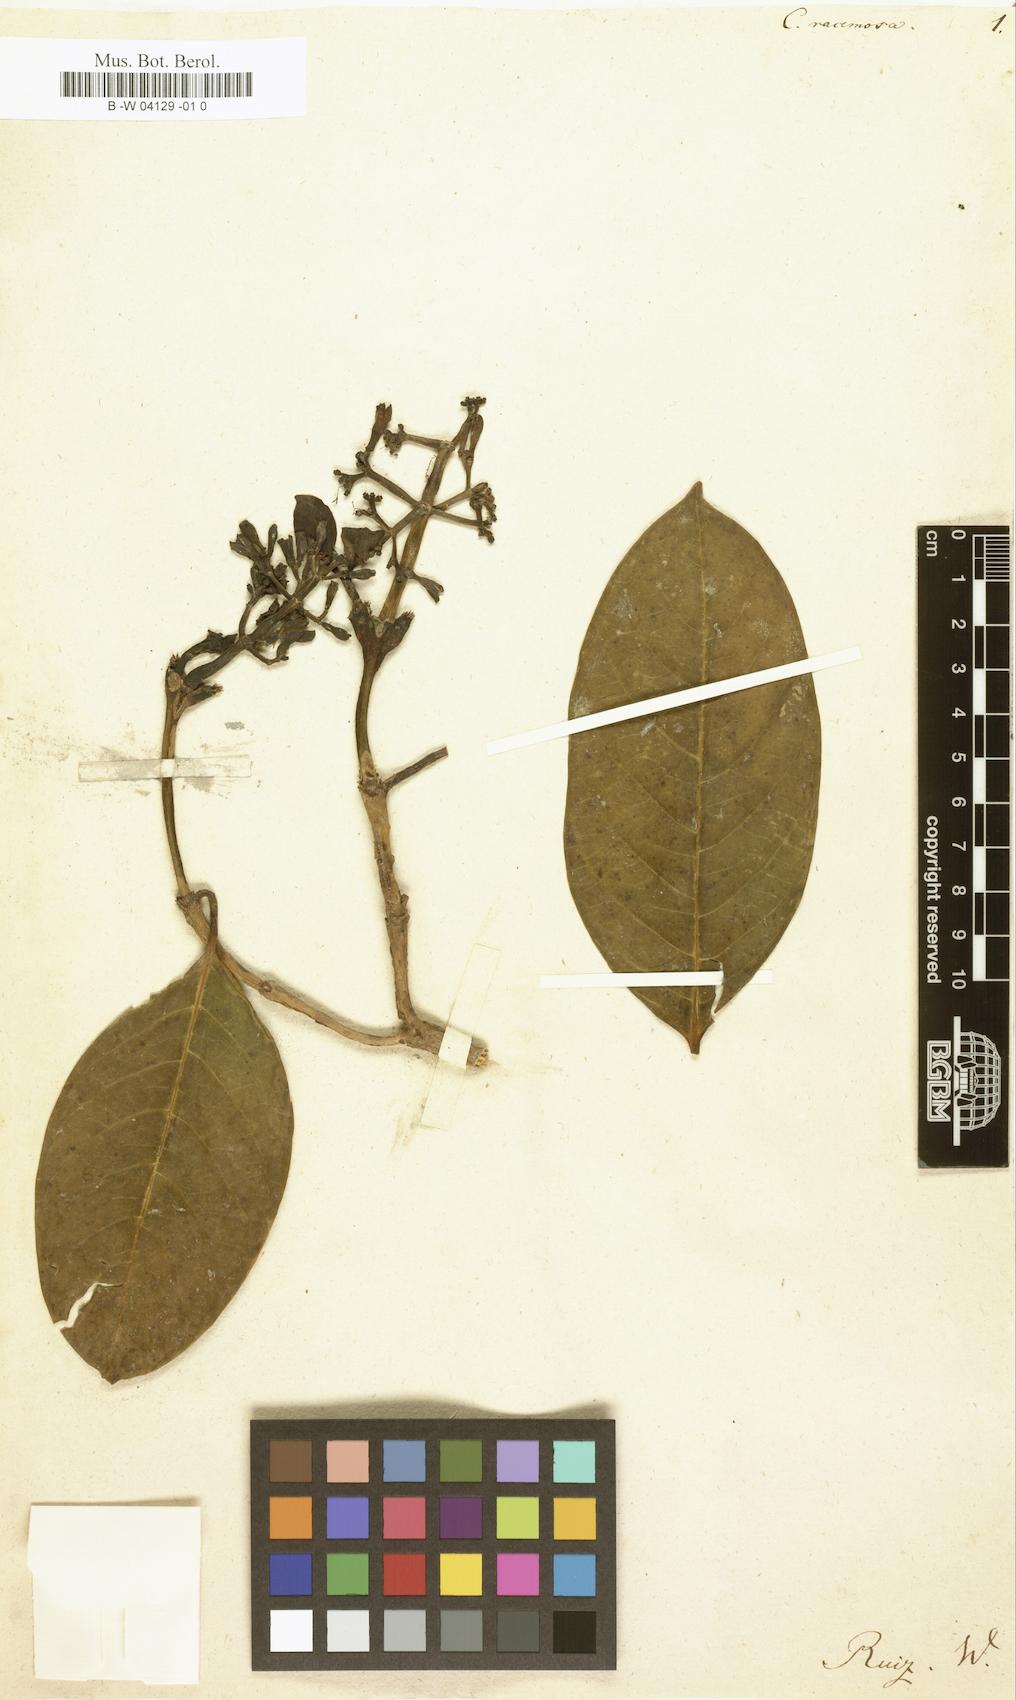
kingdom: Plantae
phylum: Tracheophyta
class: Magnoliopsida
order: Gentianales
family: Rubiaceae
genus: Coffea
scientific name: Coffea racemosa
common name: Inhambane coffee
